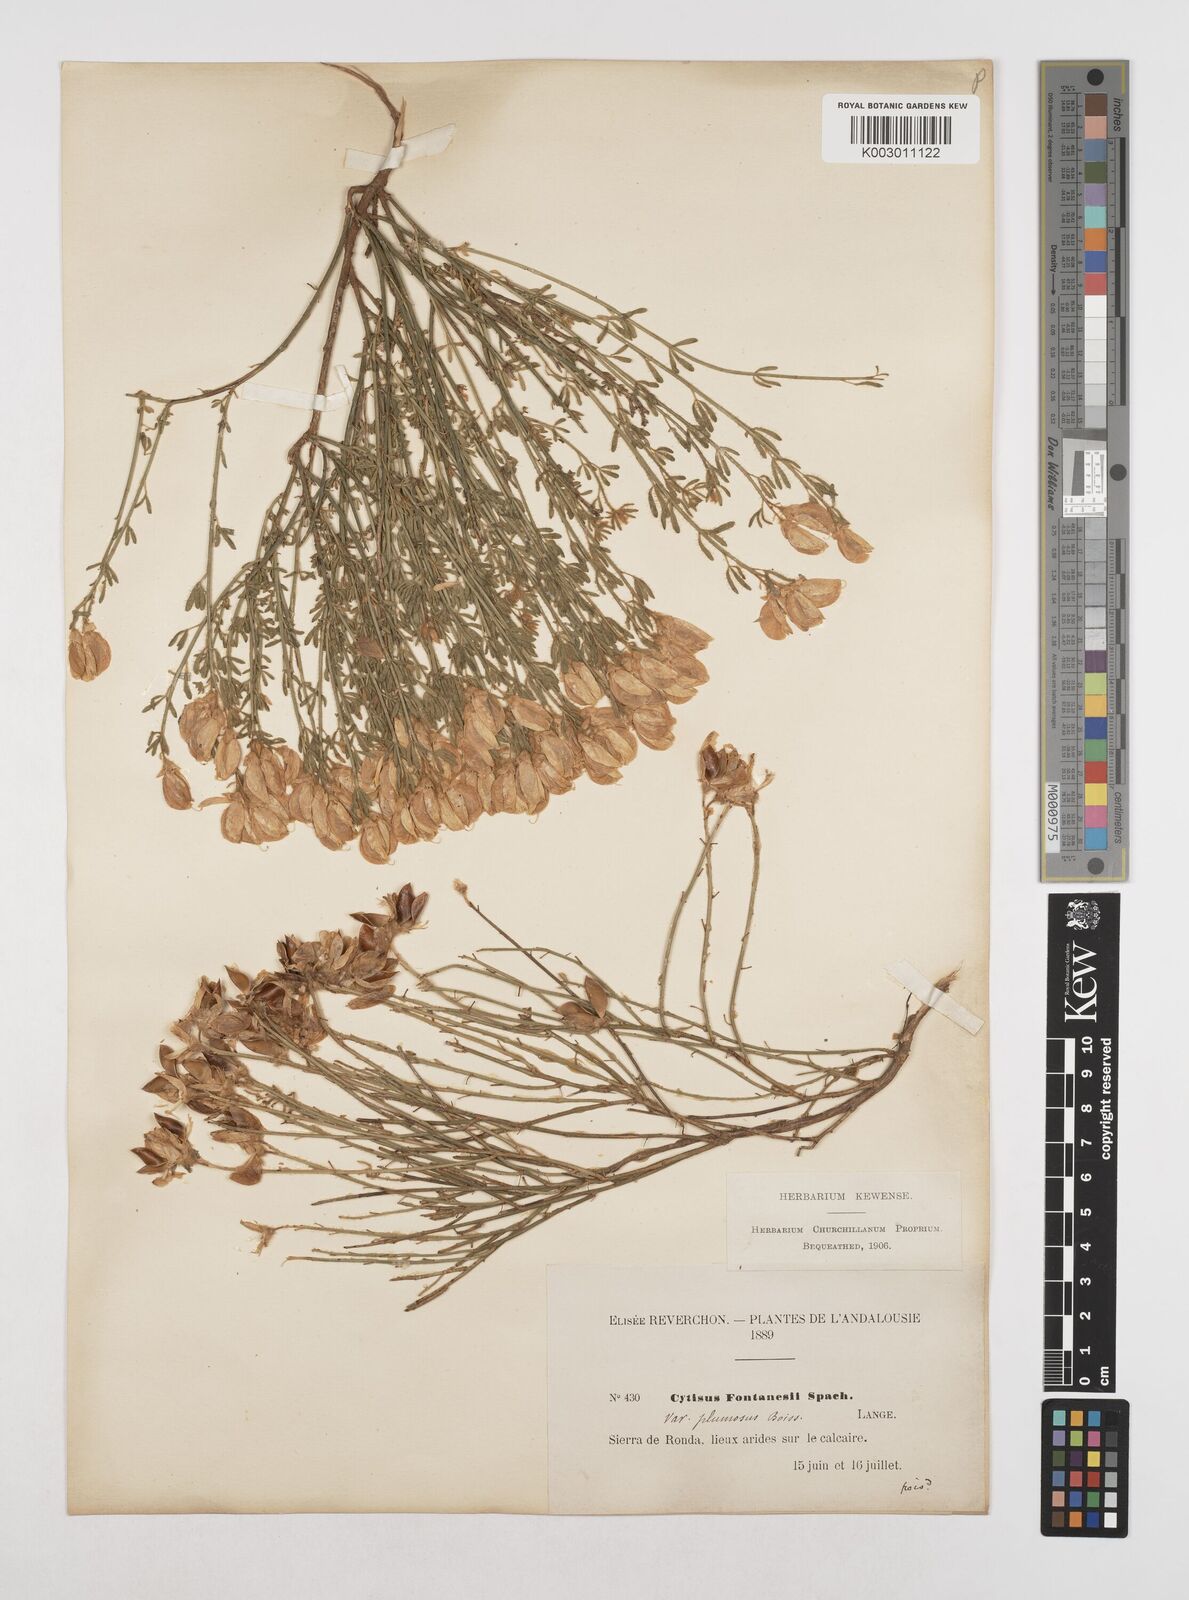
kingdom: Plantae
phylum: Tracheophyta
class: Magnoliopsida
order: Fabales
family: Fabaceae
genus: Cytisus
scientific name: Cytisus fontanesii
